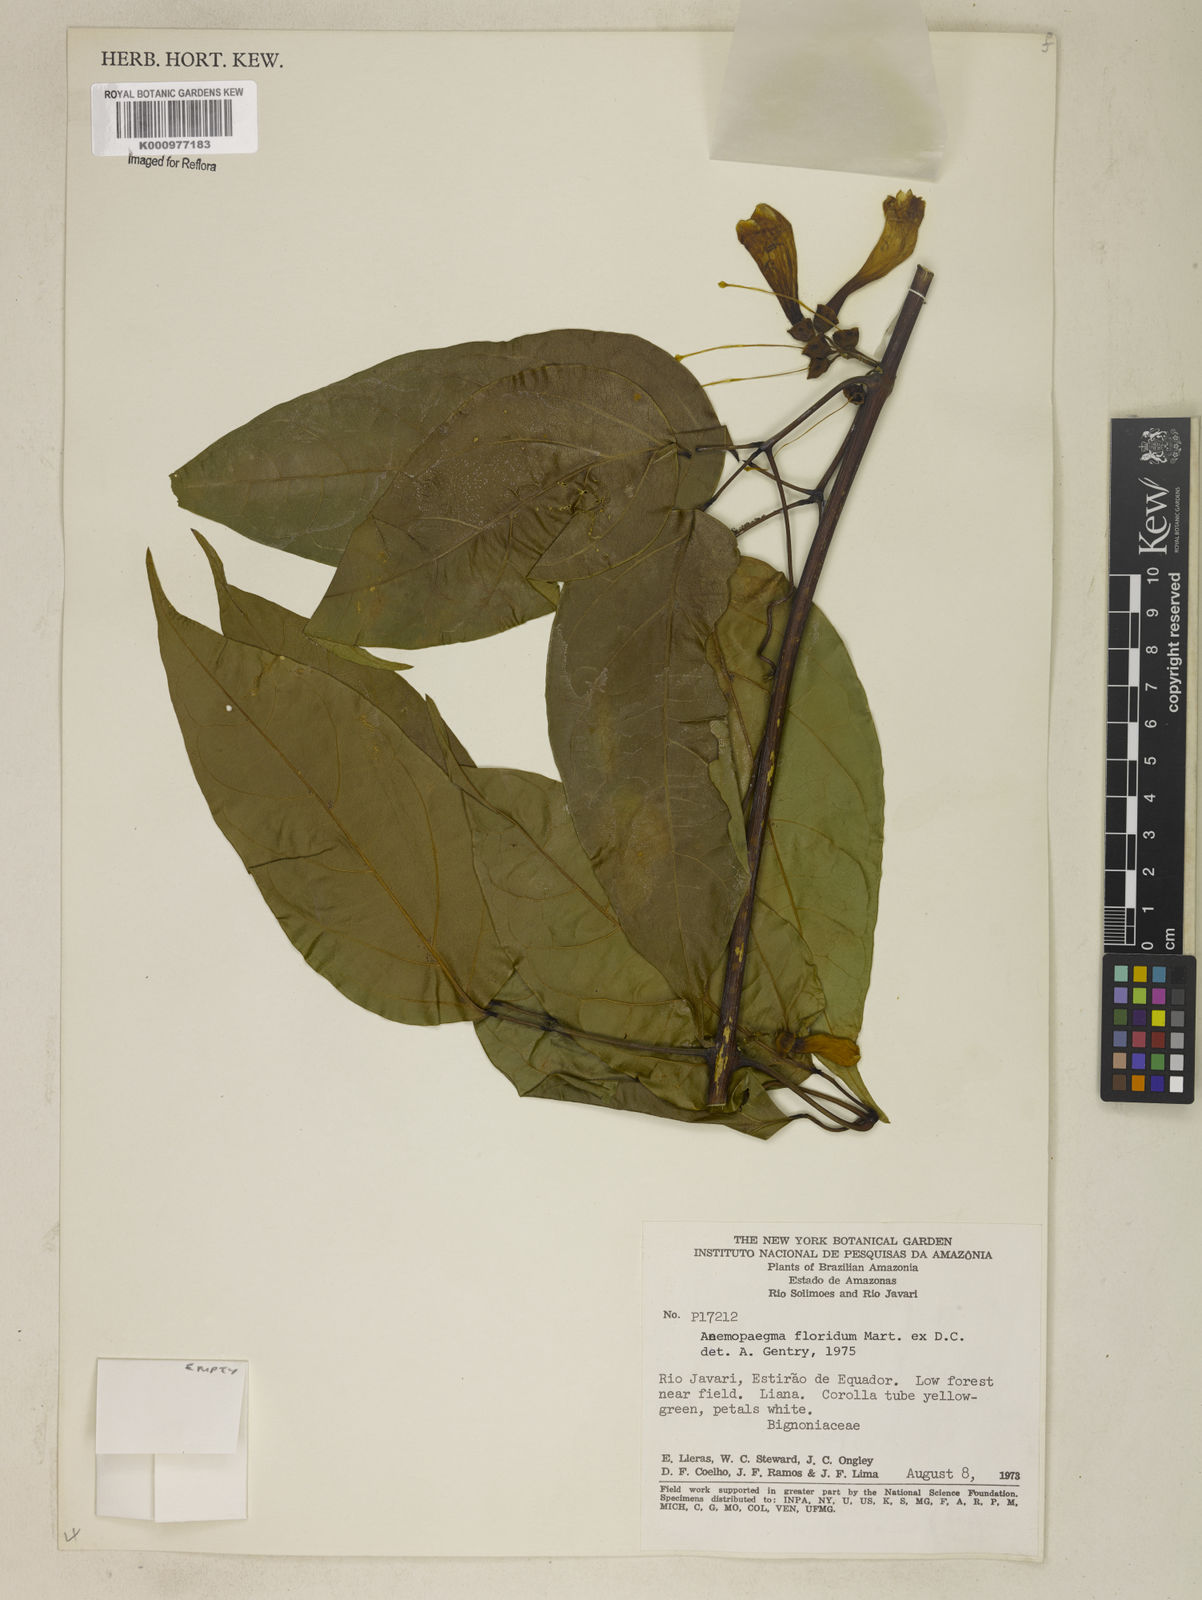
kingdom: Plantae
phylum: Tracheophyta
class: Magnoliopsida
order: Lamiales
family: Bignoniaceae
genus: Anemopaegma
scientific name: Anemopaegma floridum
